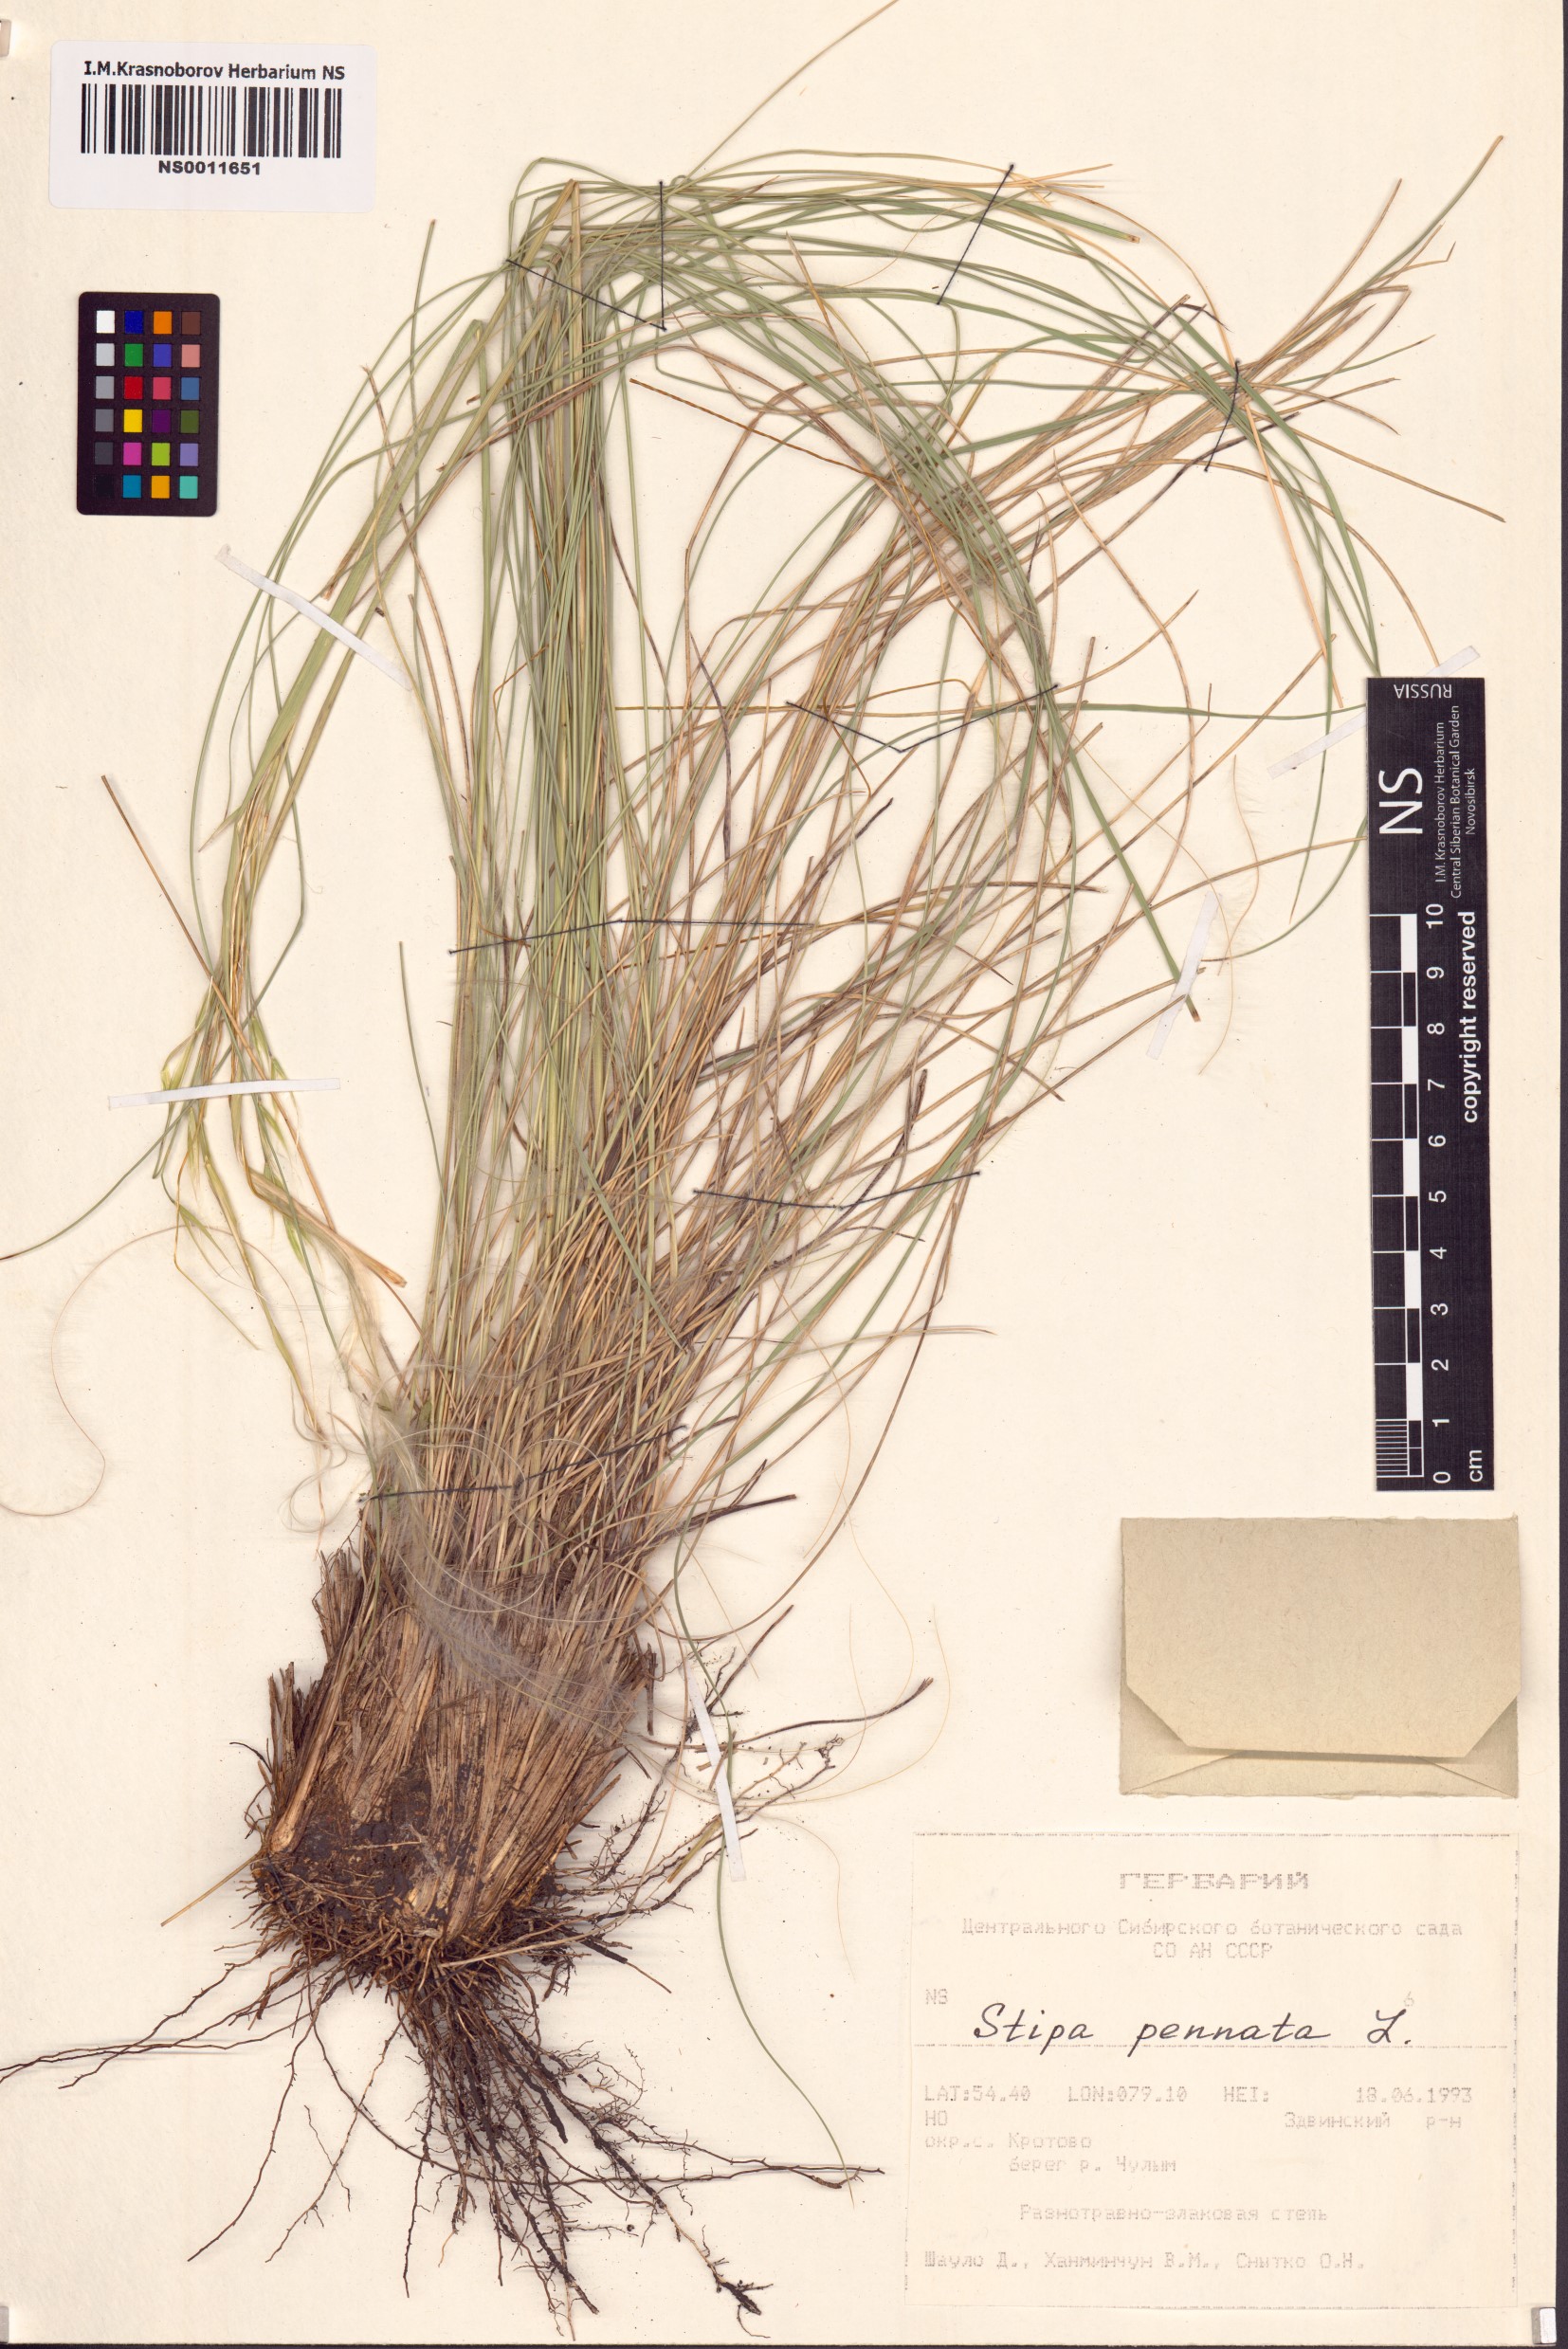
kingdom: Plantae
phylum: Tracheophyta
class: Liliopsida
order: Poales
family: Poaceae
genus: Stipa
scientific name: Stipa pennata
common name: European feather grass
